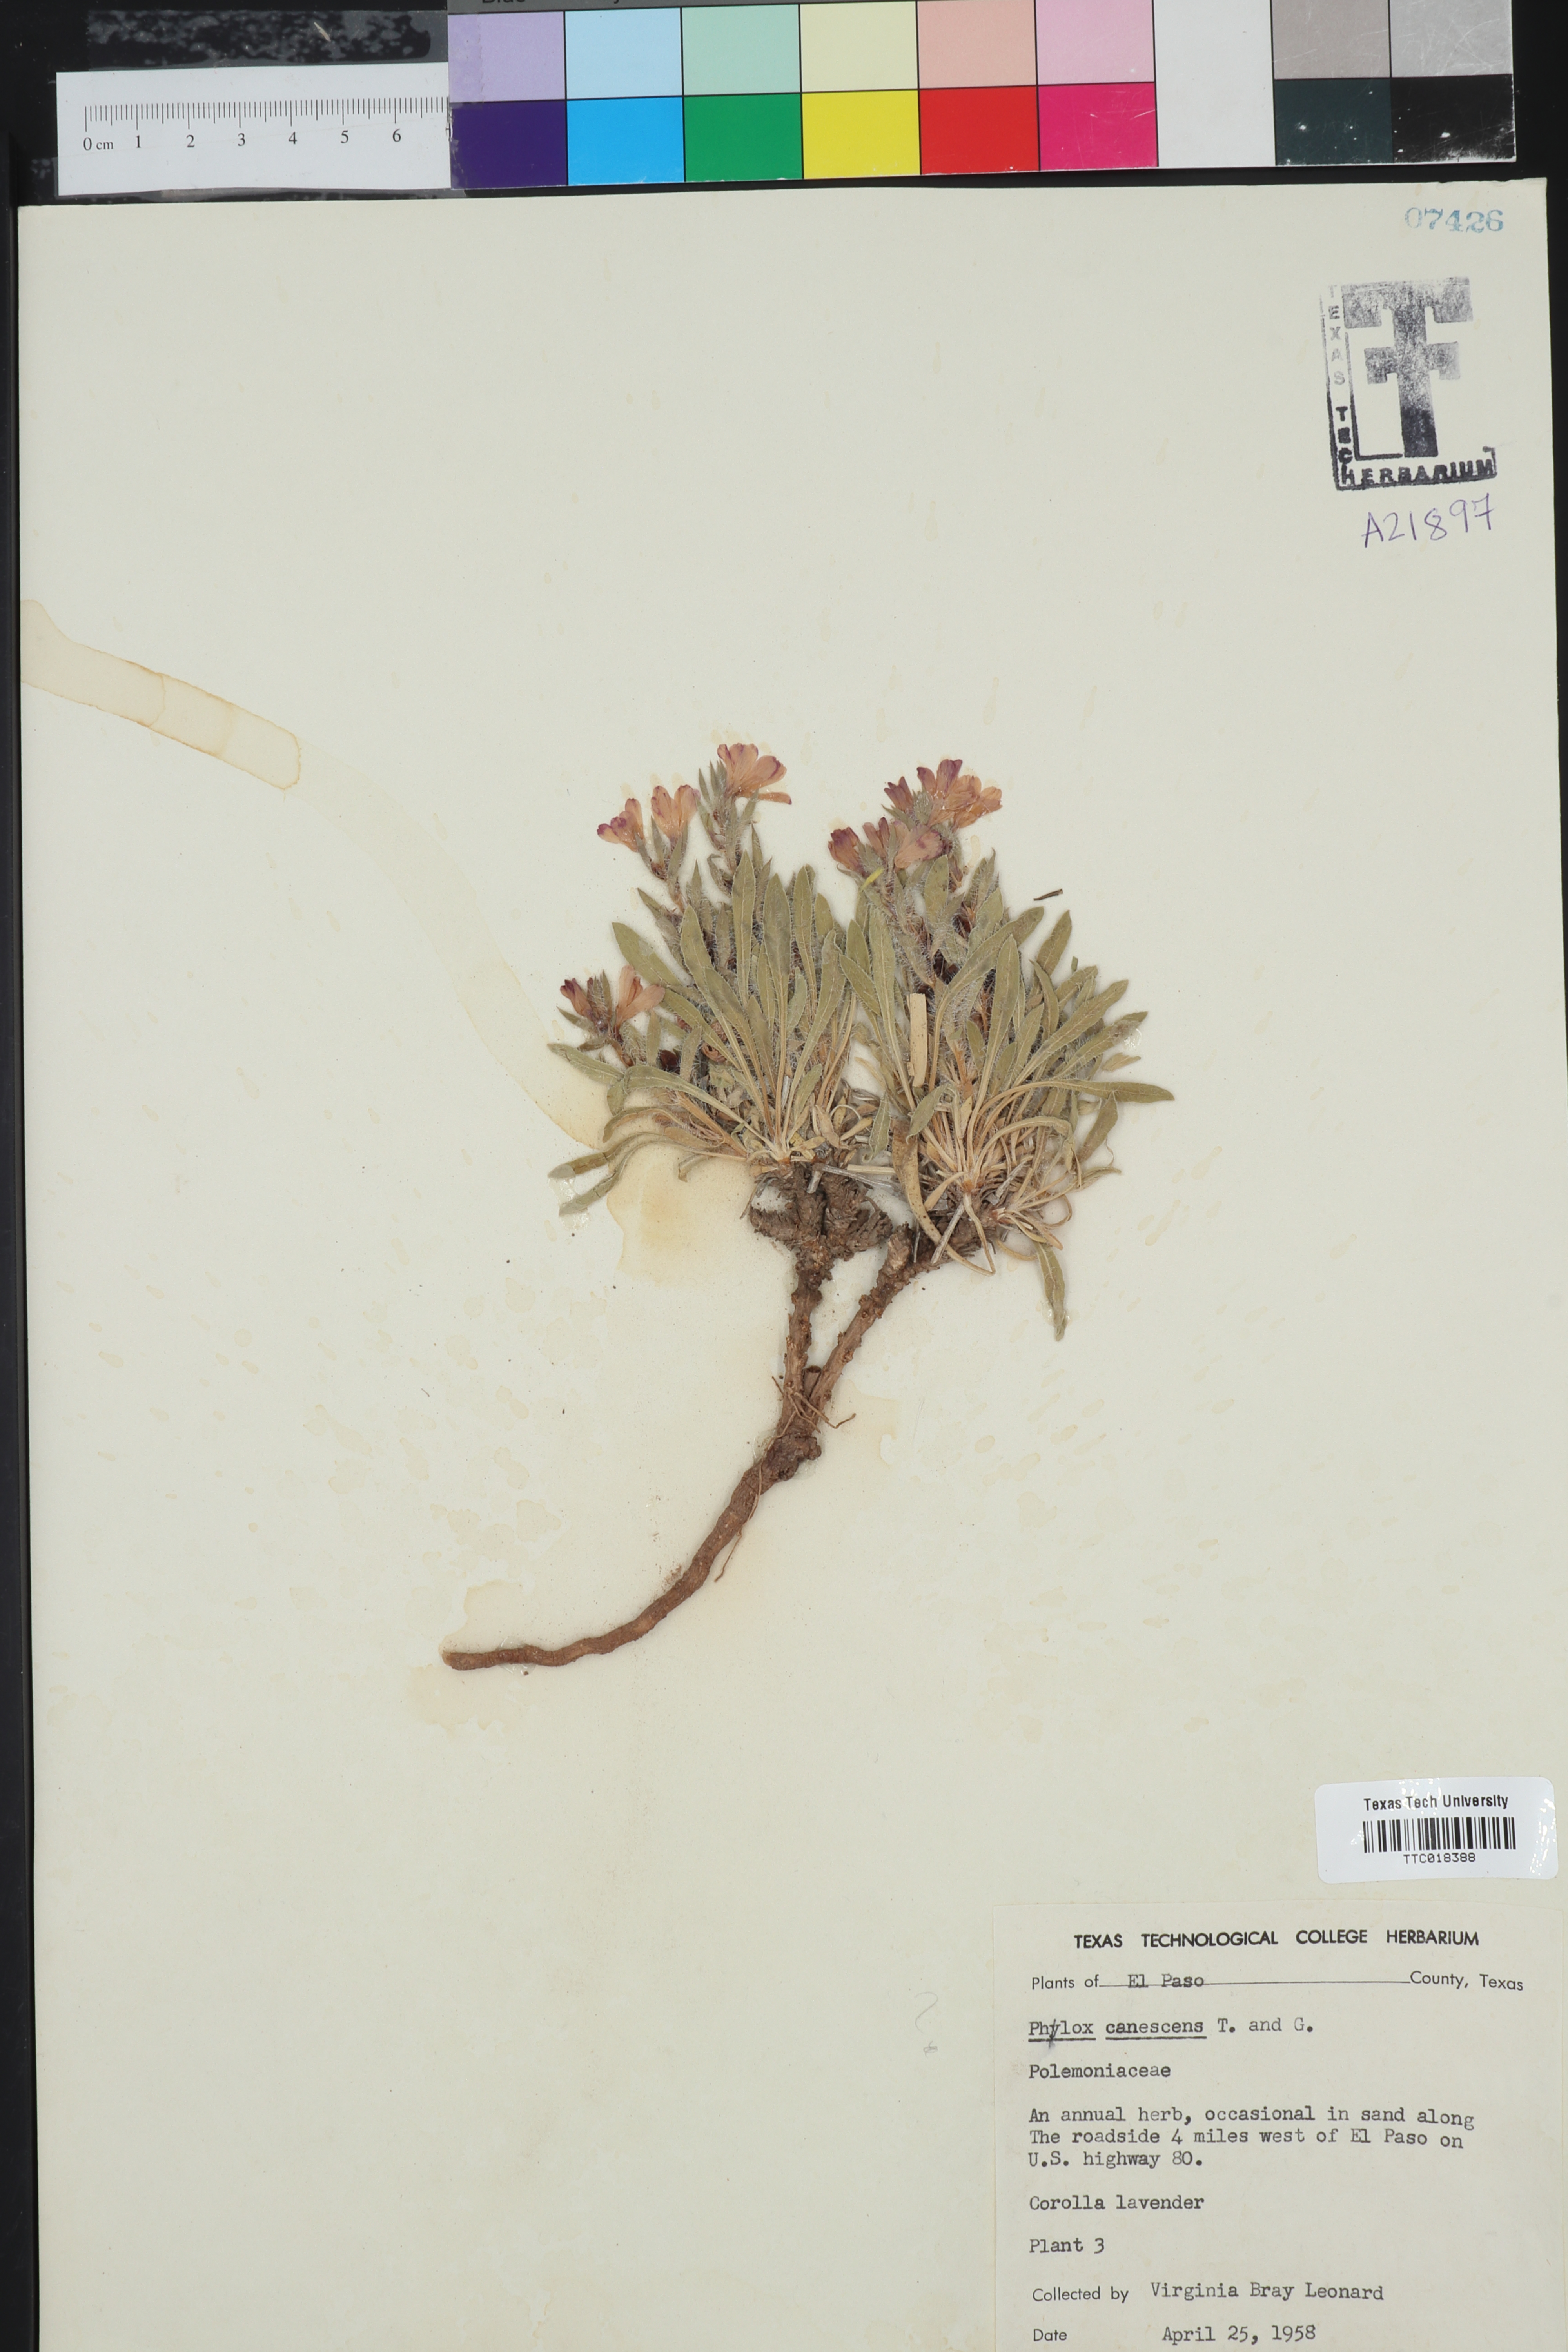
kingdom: Plantae
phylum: Tracheophyta
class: Magnoliopsida
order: Ericales
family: Polemoniaceae
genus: Phlox
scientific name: Phlox hoodii
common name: Moss phlox
